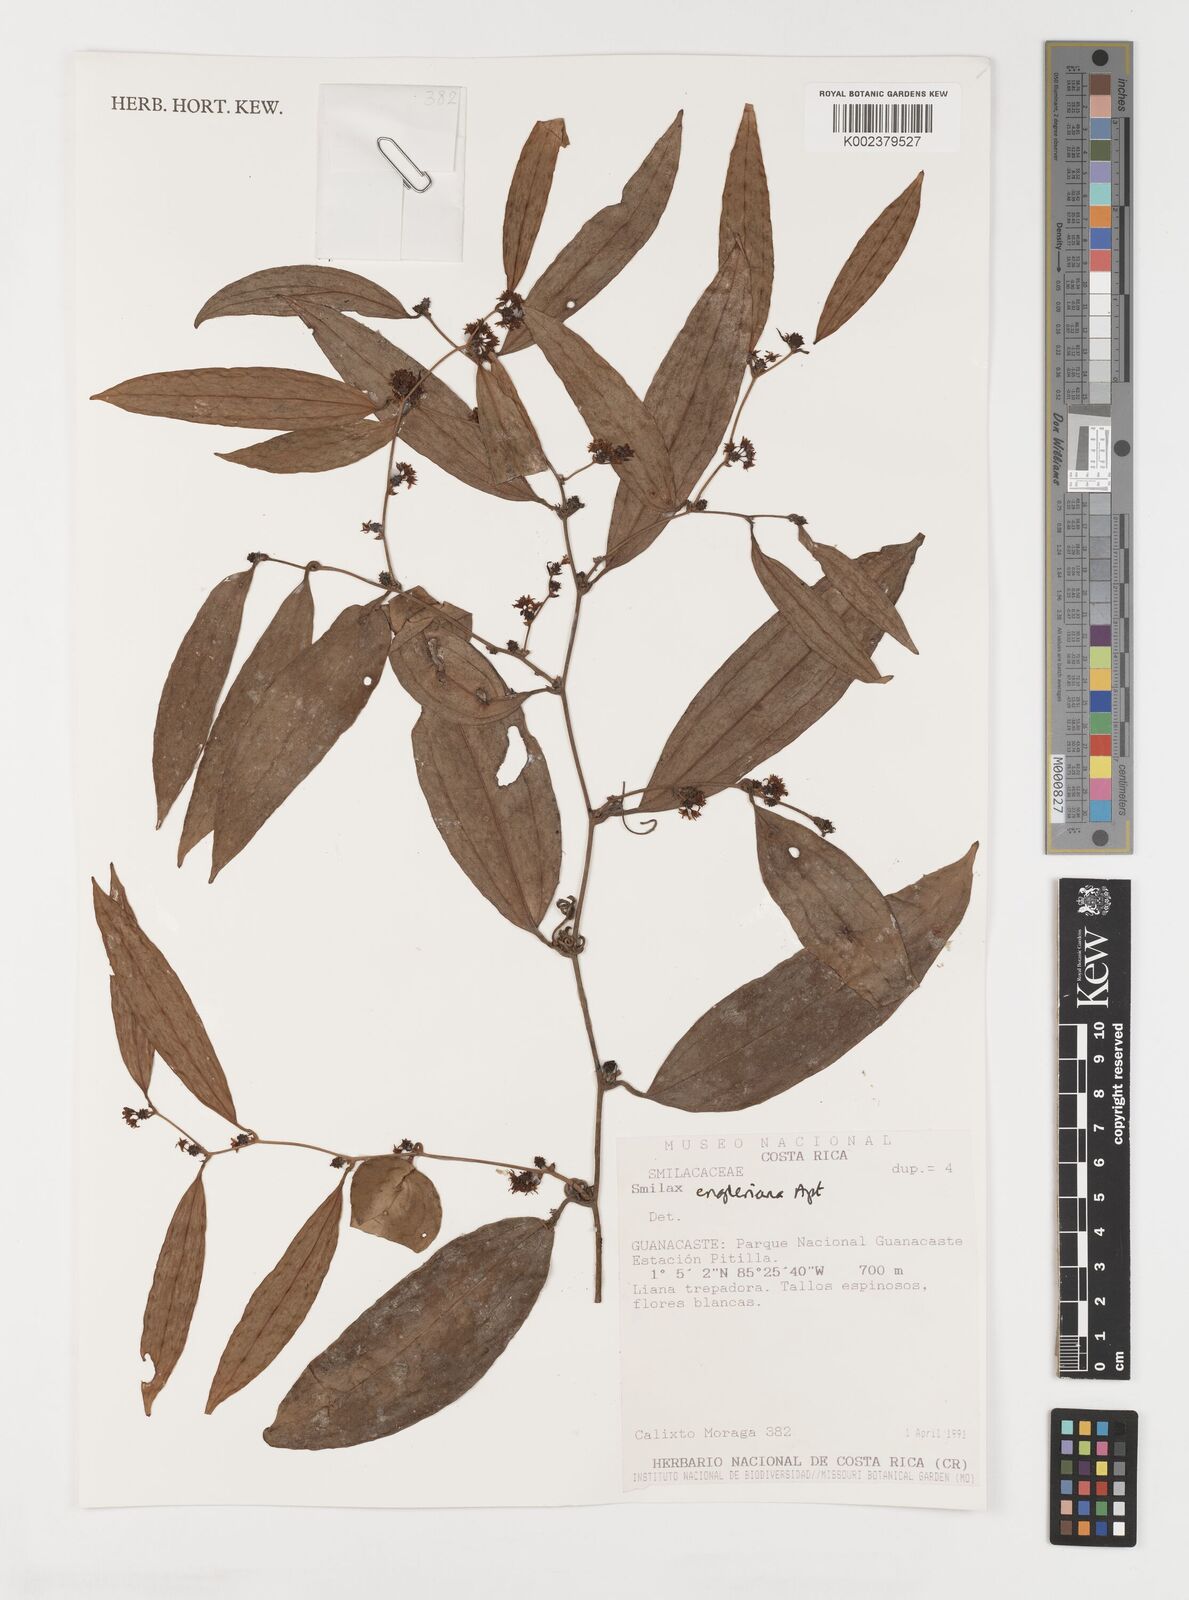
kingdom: Plantae
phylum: Tracheophyta
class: Liliopsida
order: Liliales
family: Smilacaceae
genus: Smilax
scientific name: Smilax domingensis
